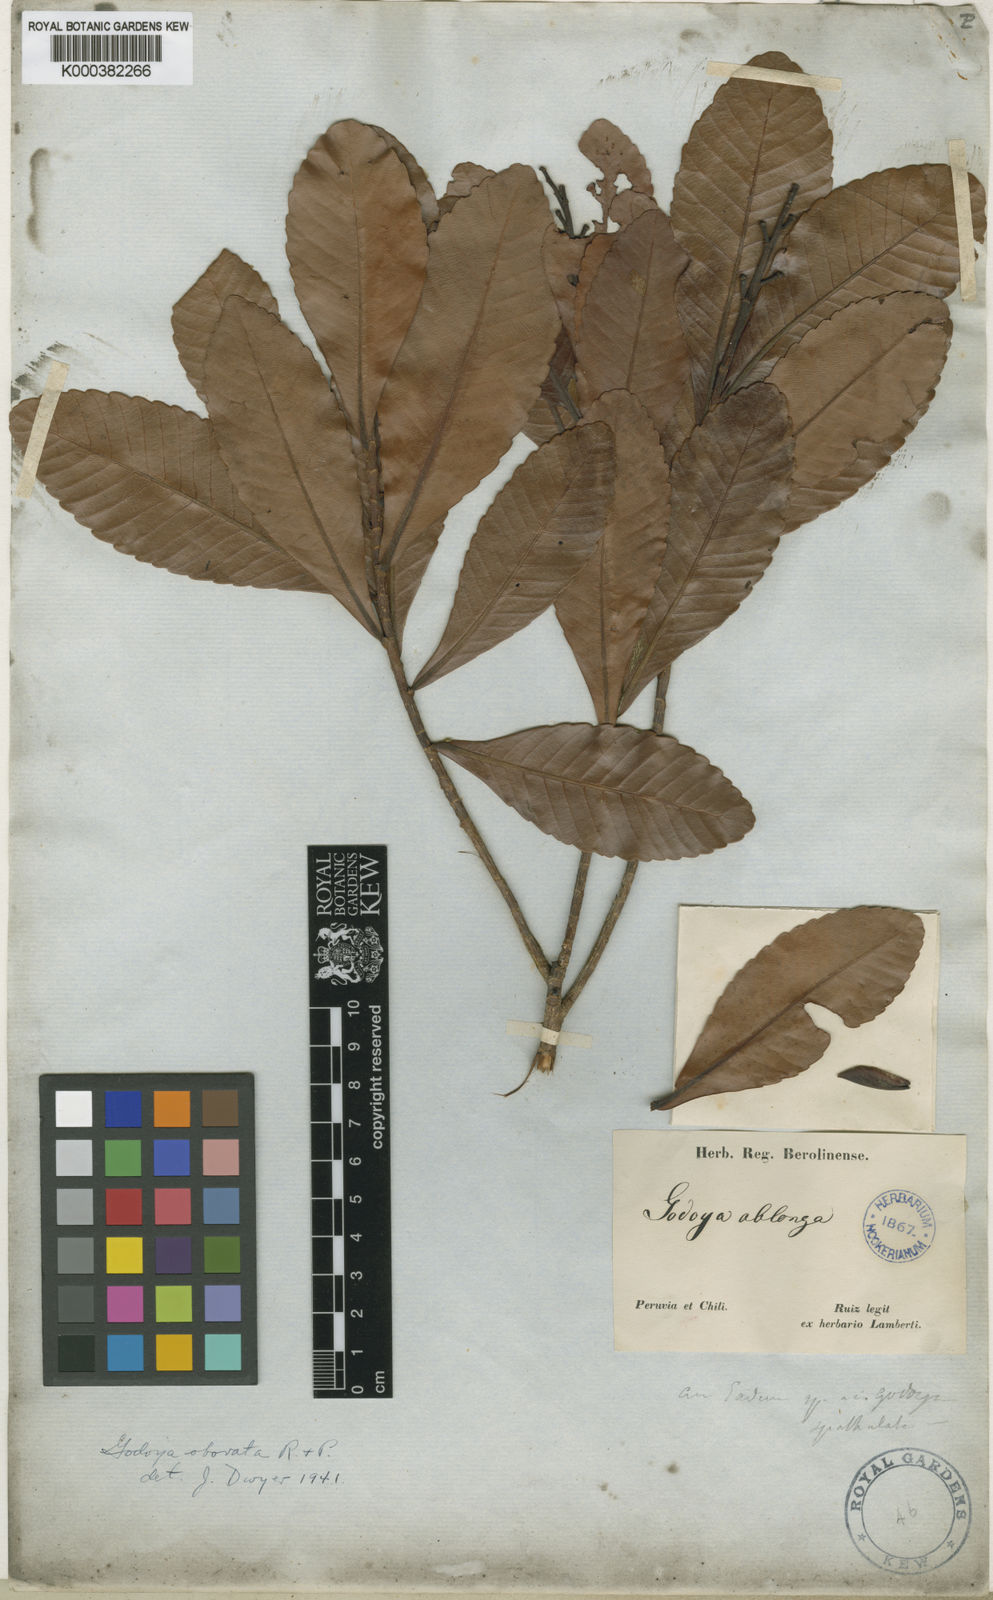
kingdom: Plantae
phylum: Tracheophyta
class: Magnoliopsida
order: Malpighiales
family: Ochnaceae
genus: Godoya
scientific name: Godoya obovata
